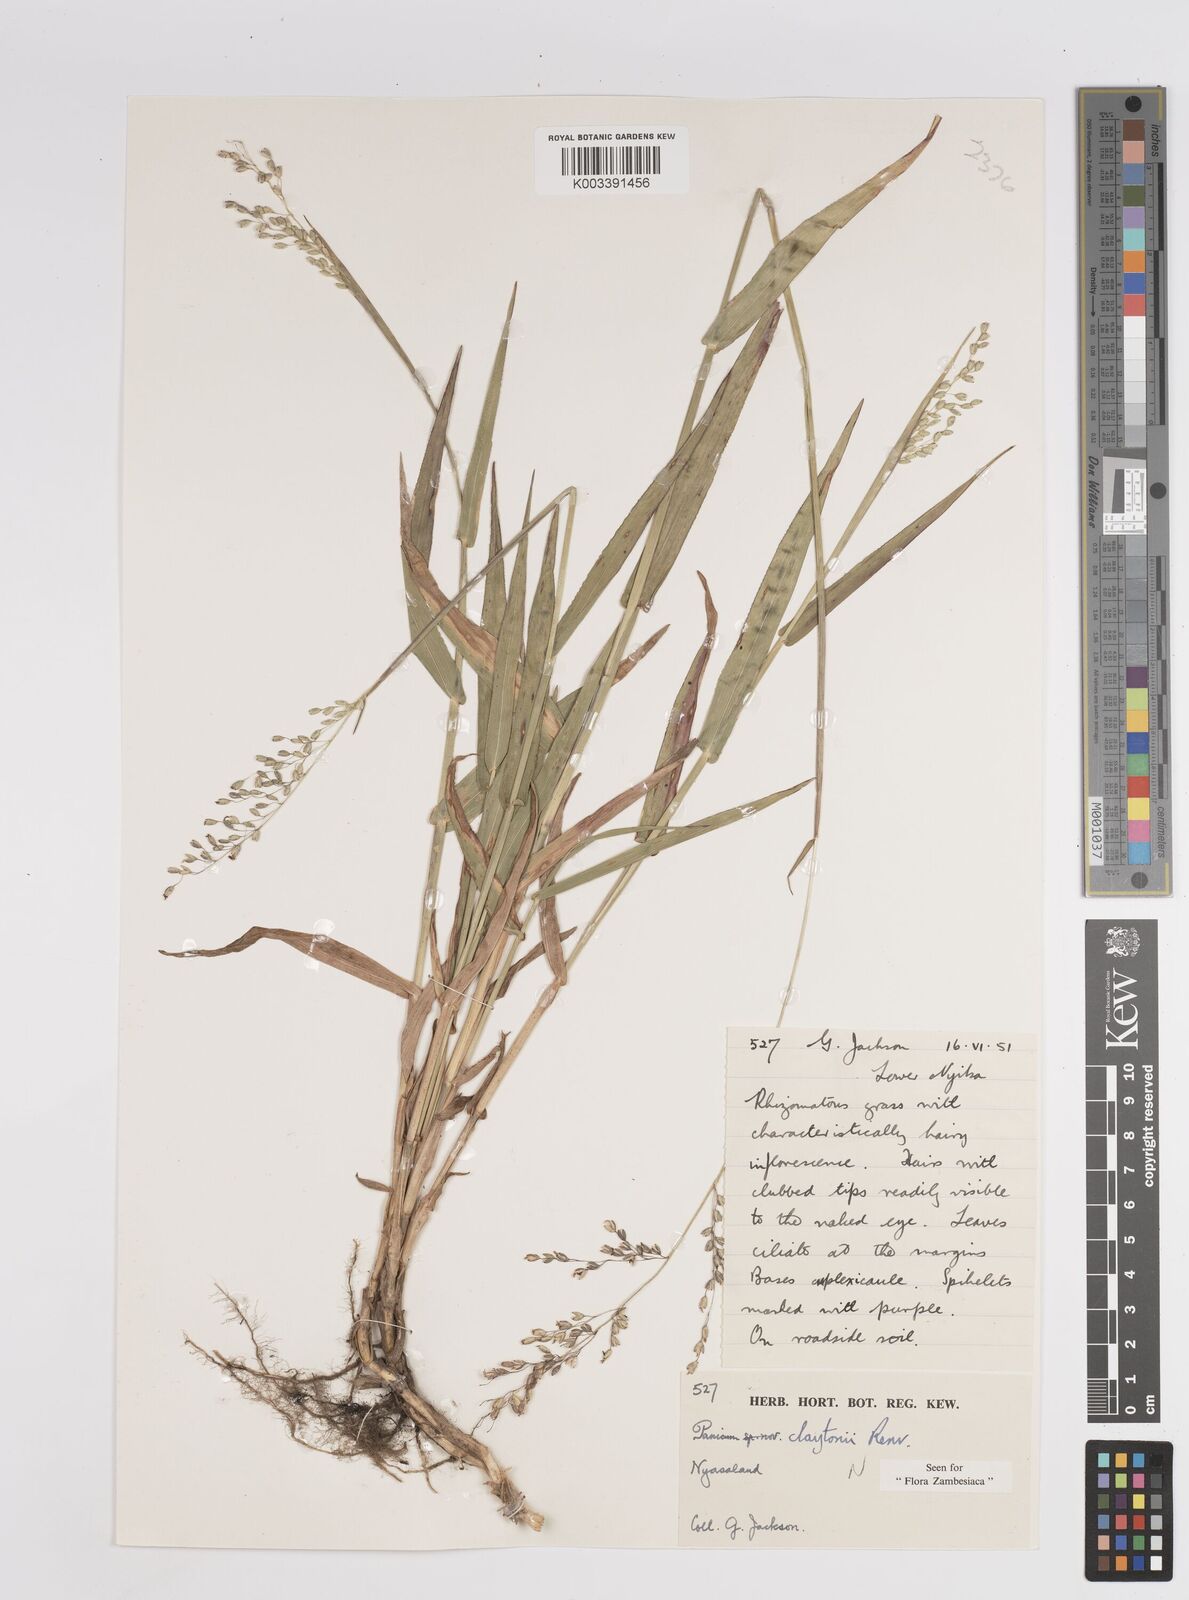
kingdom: Plantae
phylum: Tracheophyta
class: Liliopsida
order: Poales
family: Poaceae
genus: Adenochloa
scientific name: Adenochloa claytonii
